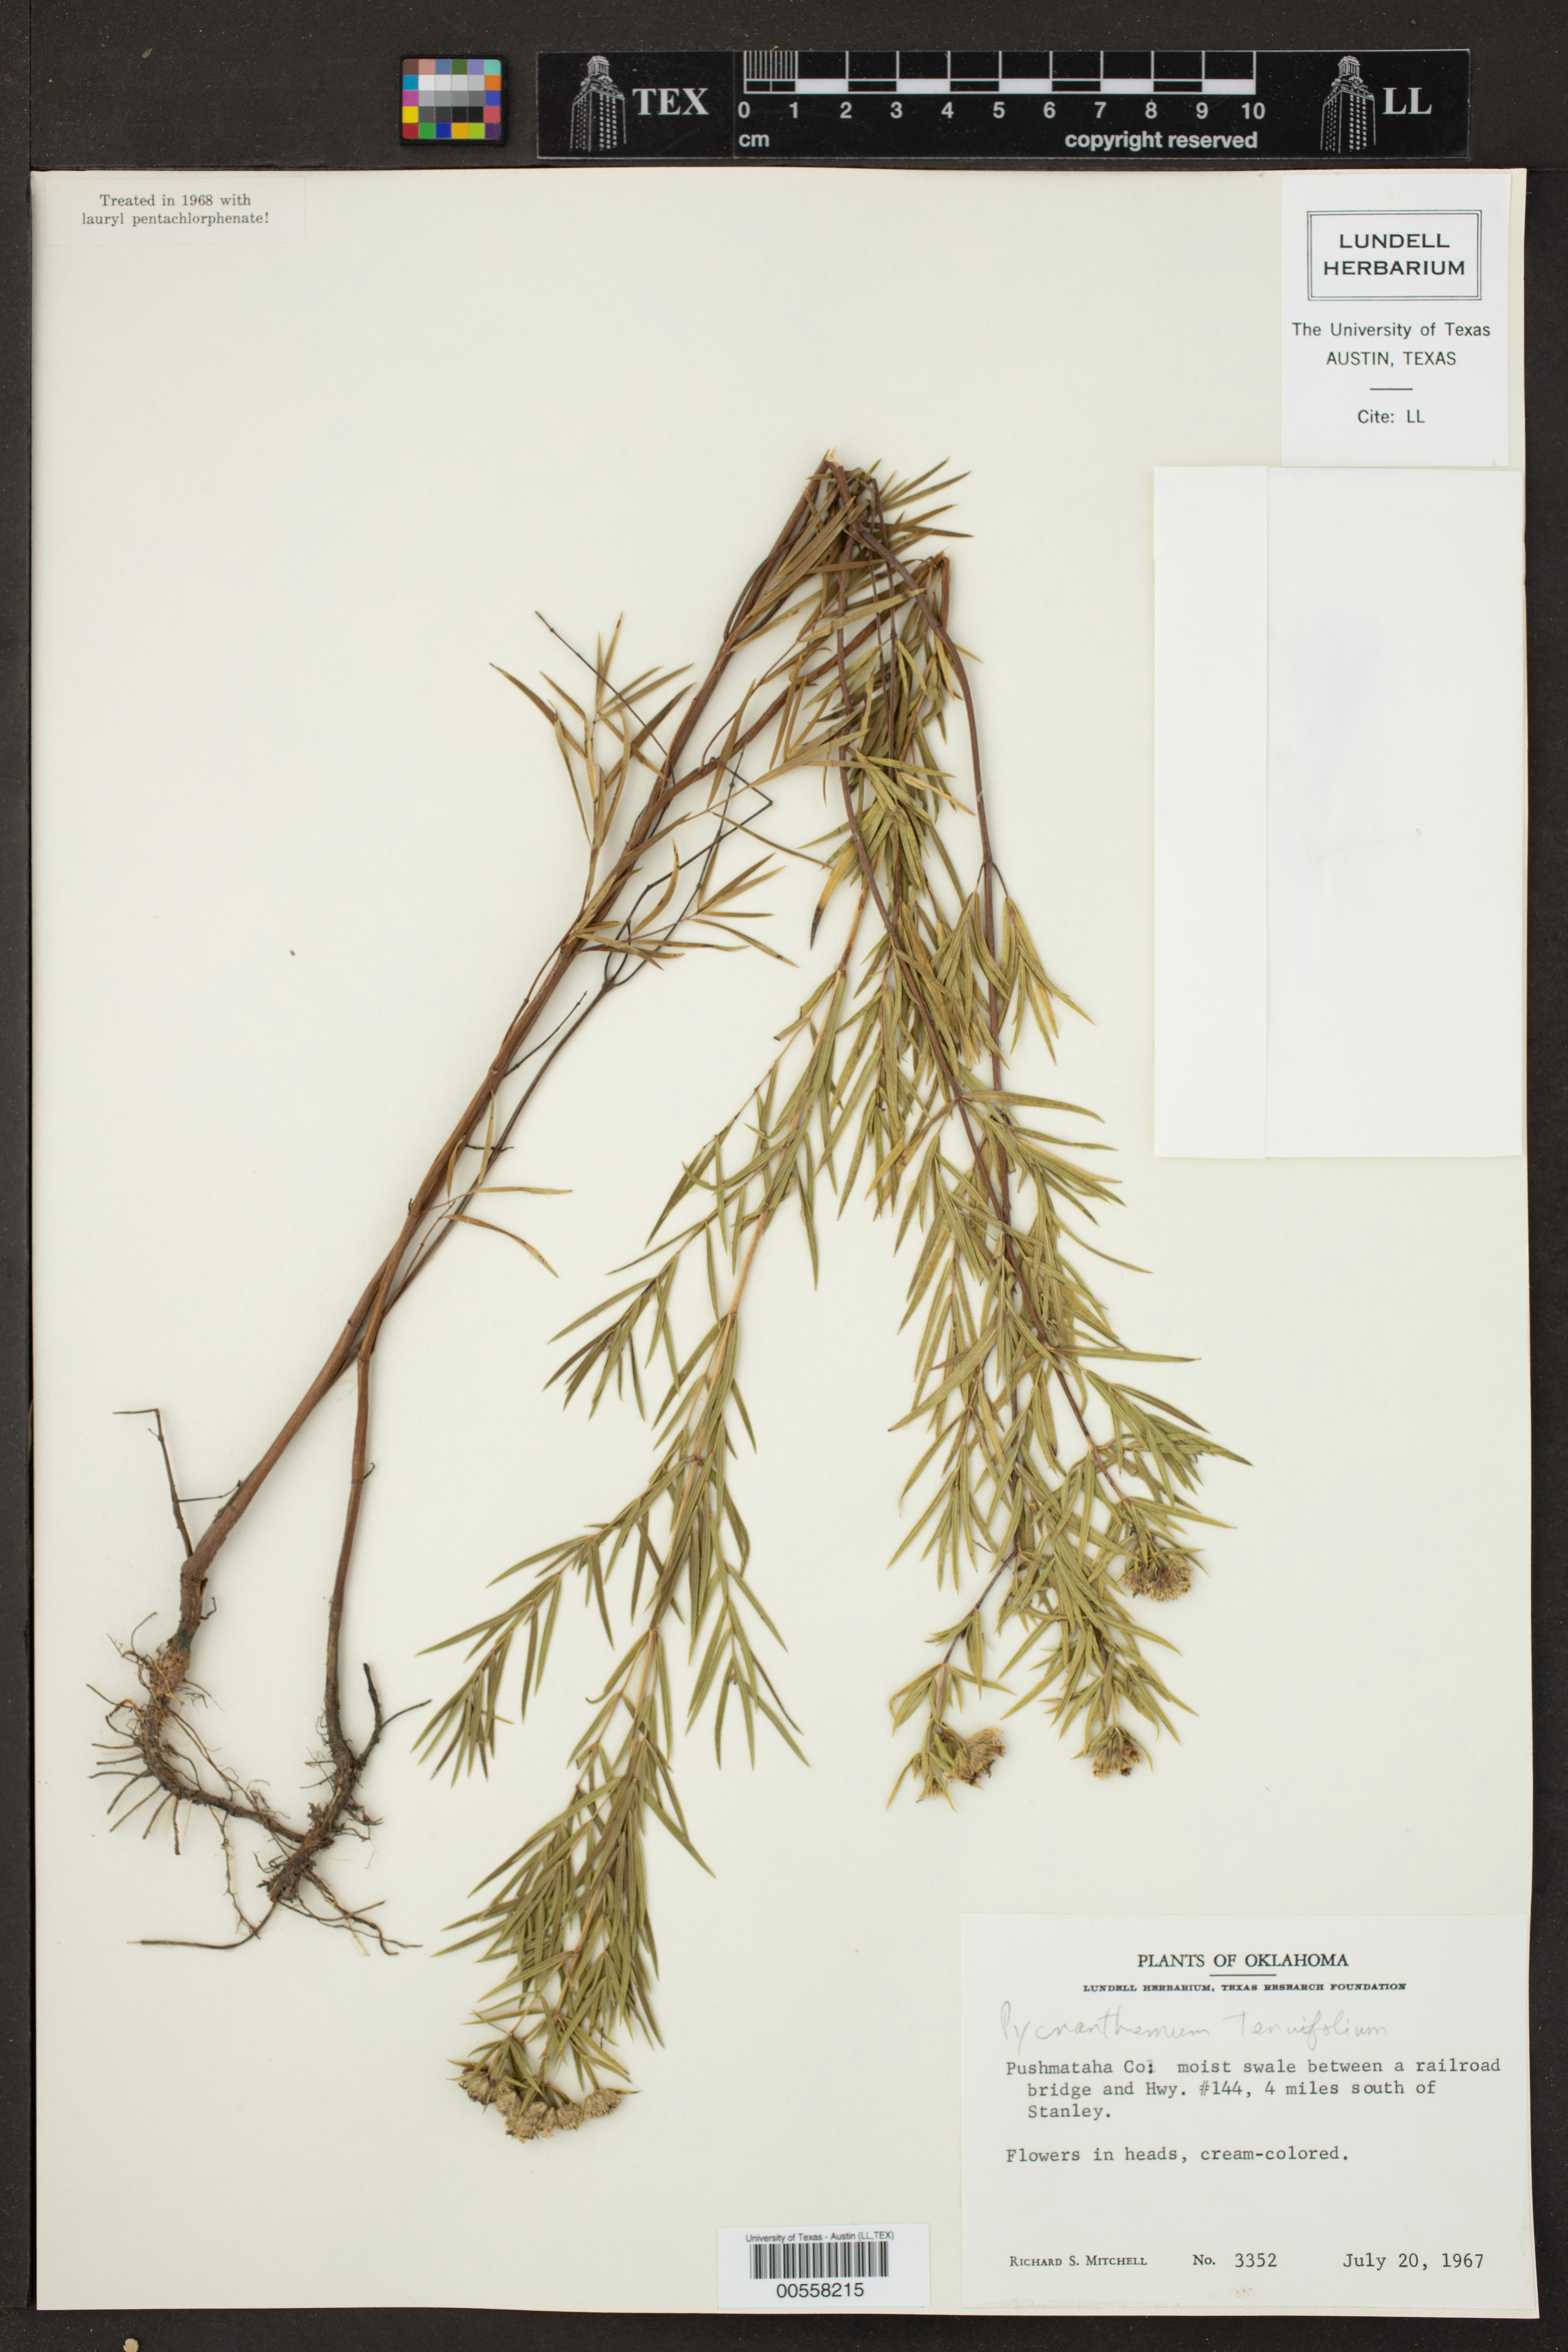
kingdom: Plantae
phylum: Tracheophyta
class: Magnoliopsida
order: Lamiales
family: Lamiaceae
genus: Pycnanthemum
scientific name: Pycnanthemum tenuifolium
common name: Narrow-leaf mountain-mint
